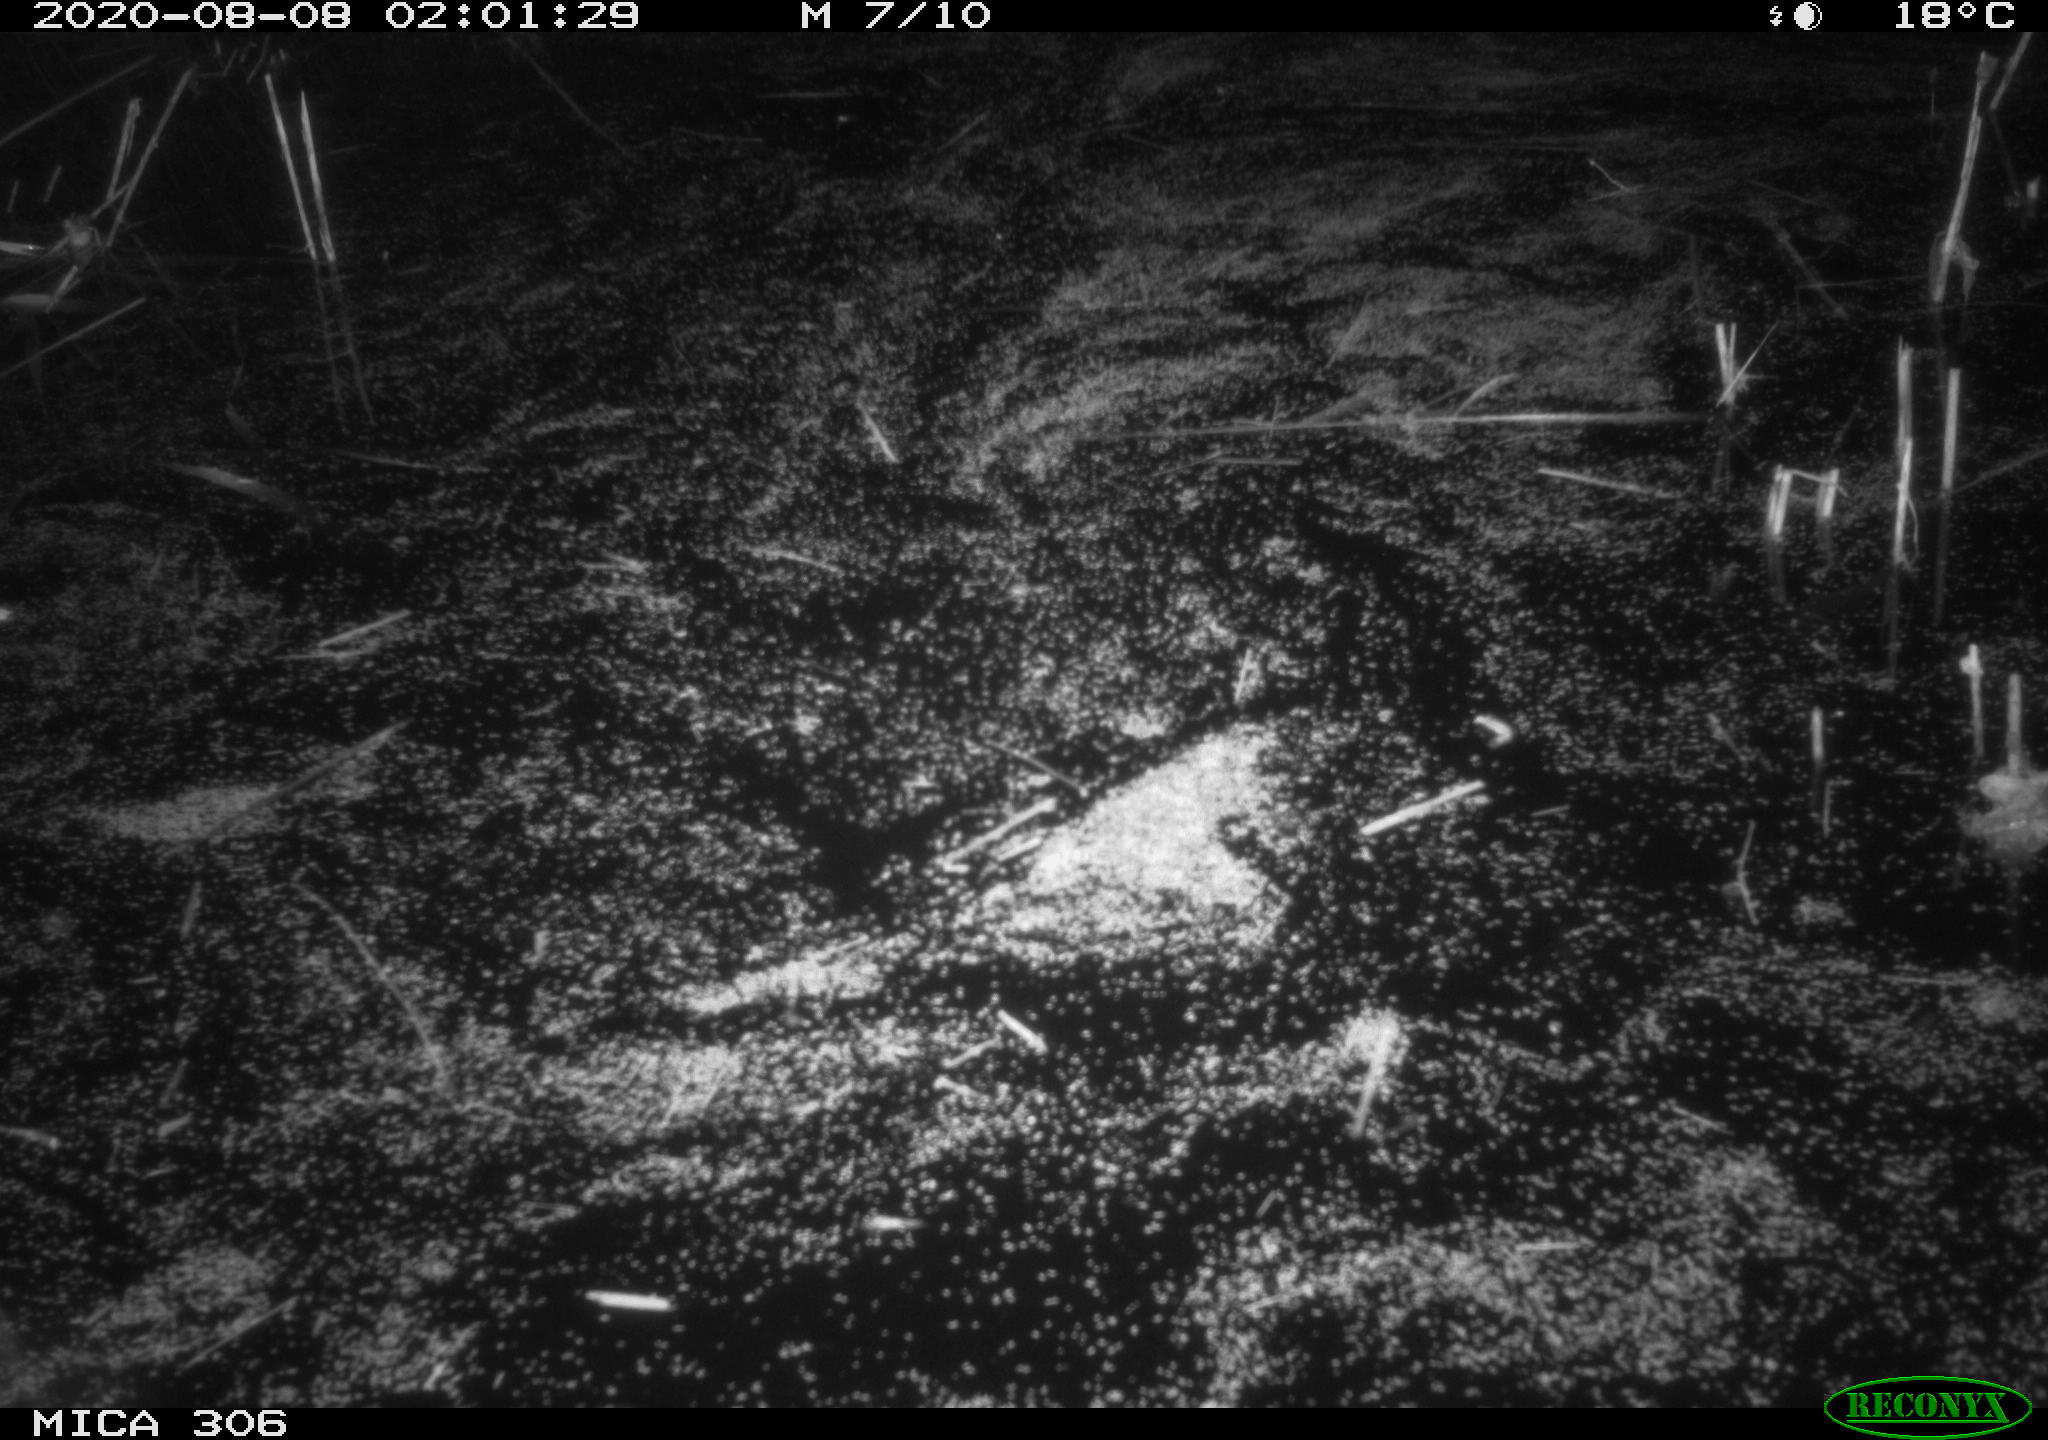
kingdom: Animalia
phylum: Chordata
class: Mammalia
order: Rodentia
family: Muridae
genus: Rattus
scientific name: Rattus norvegicus
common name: Brown rat
